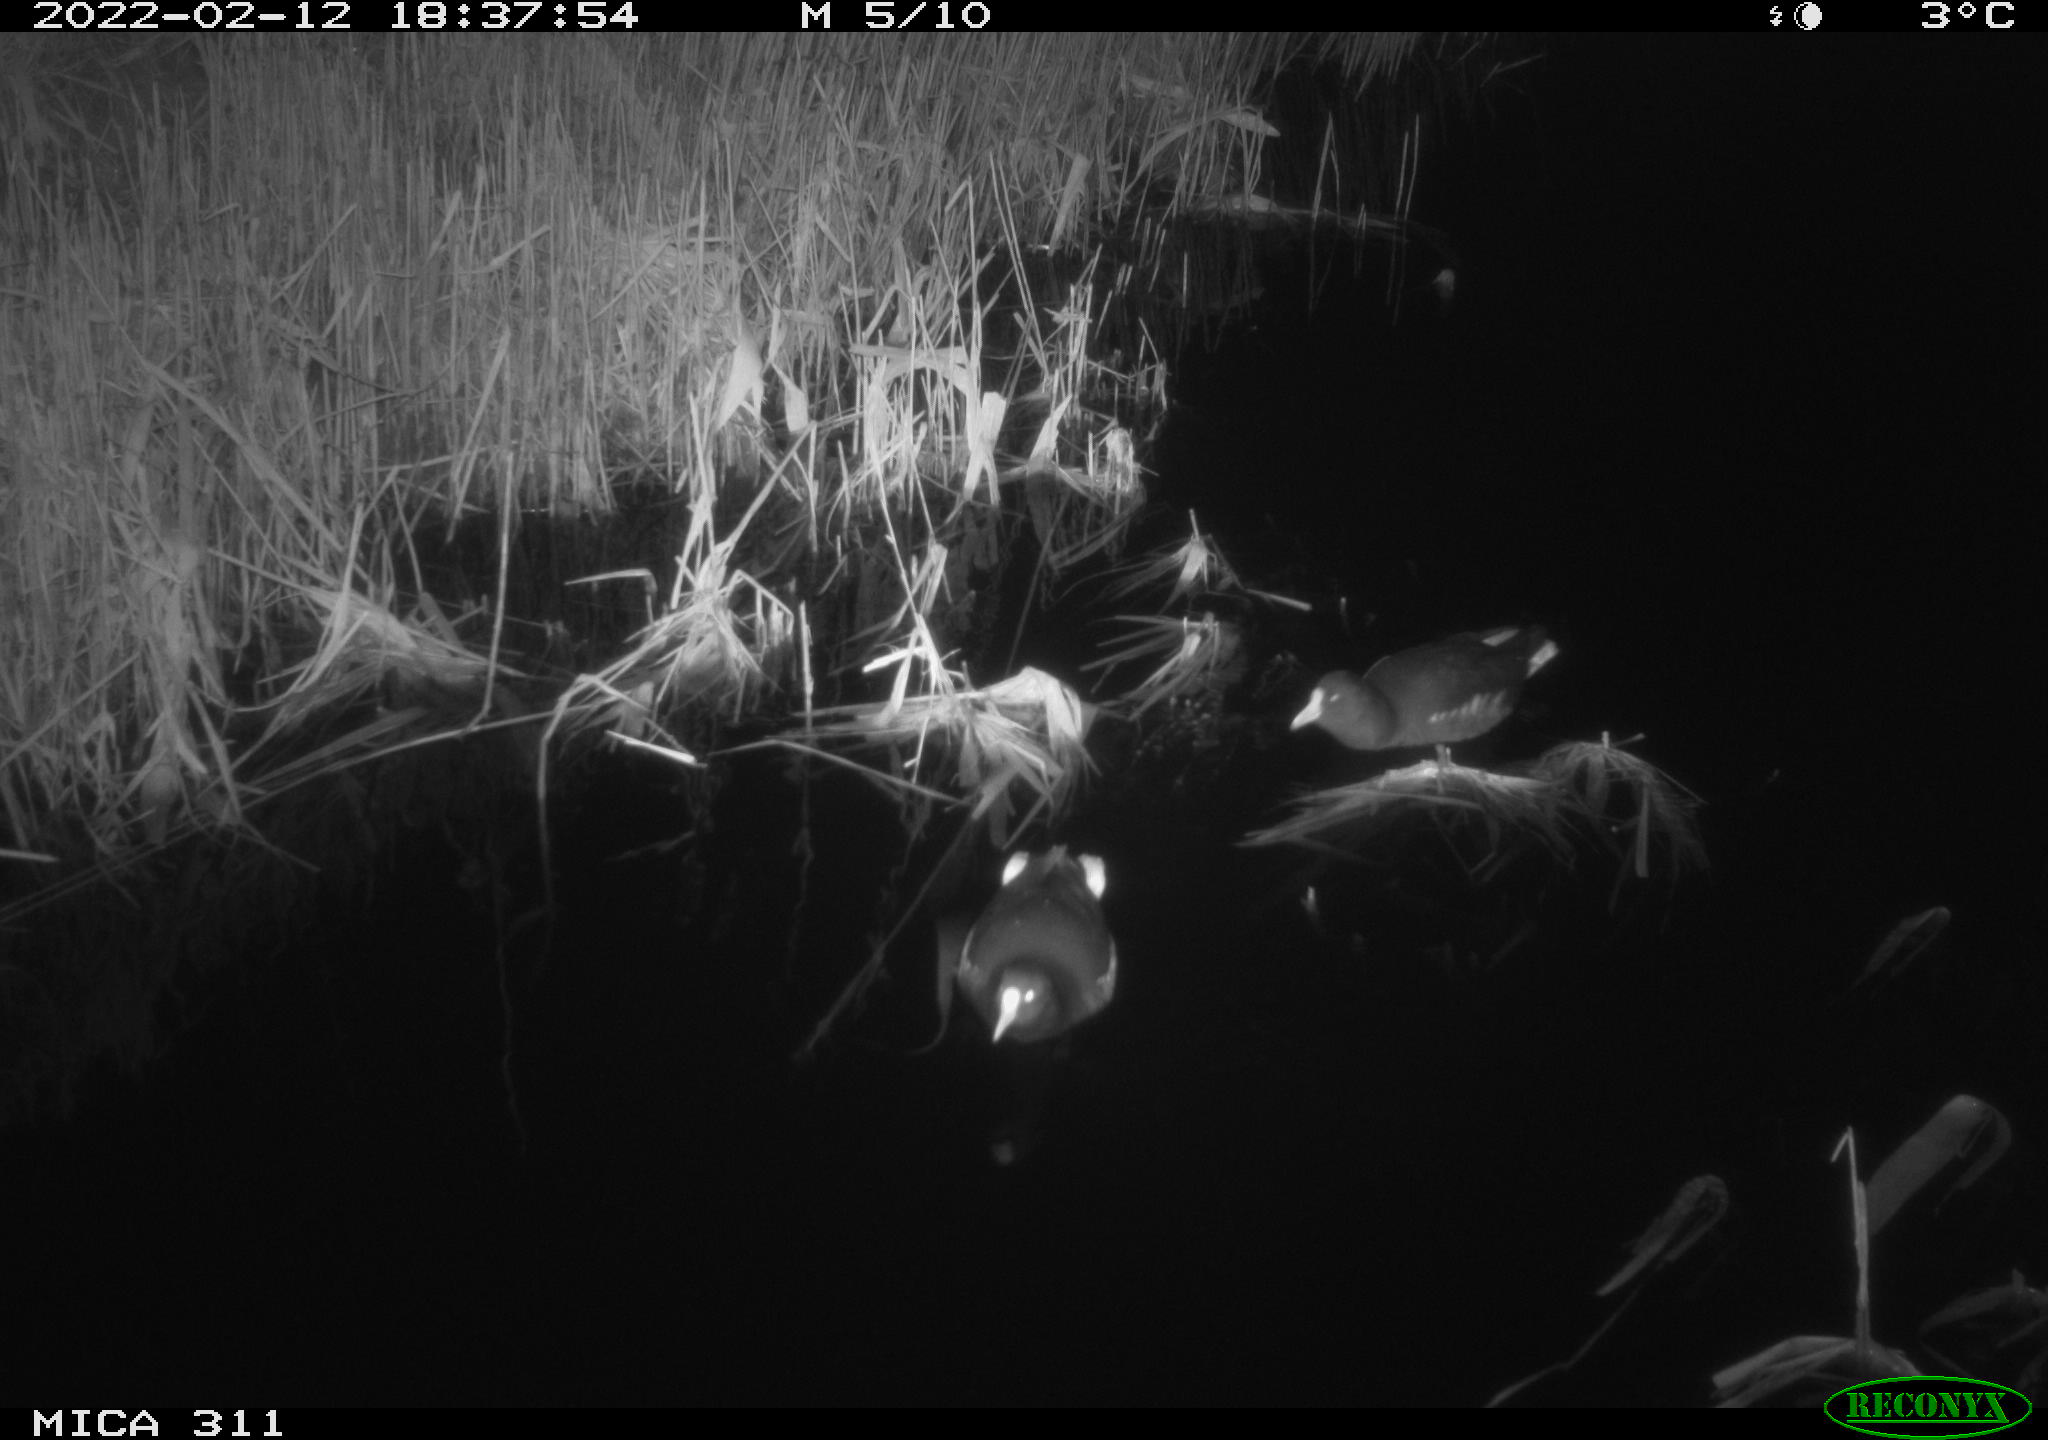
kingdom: Animalia
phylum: Chordata
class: Aves
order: Gruiformes
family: Rallidae
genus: Gallinula
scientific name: Gallinula chloropus
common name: Common moorhen
